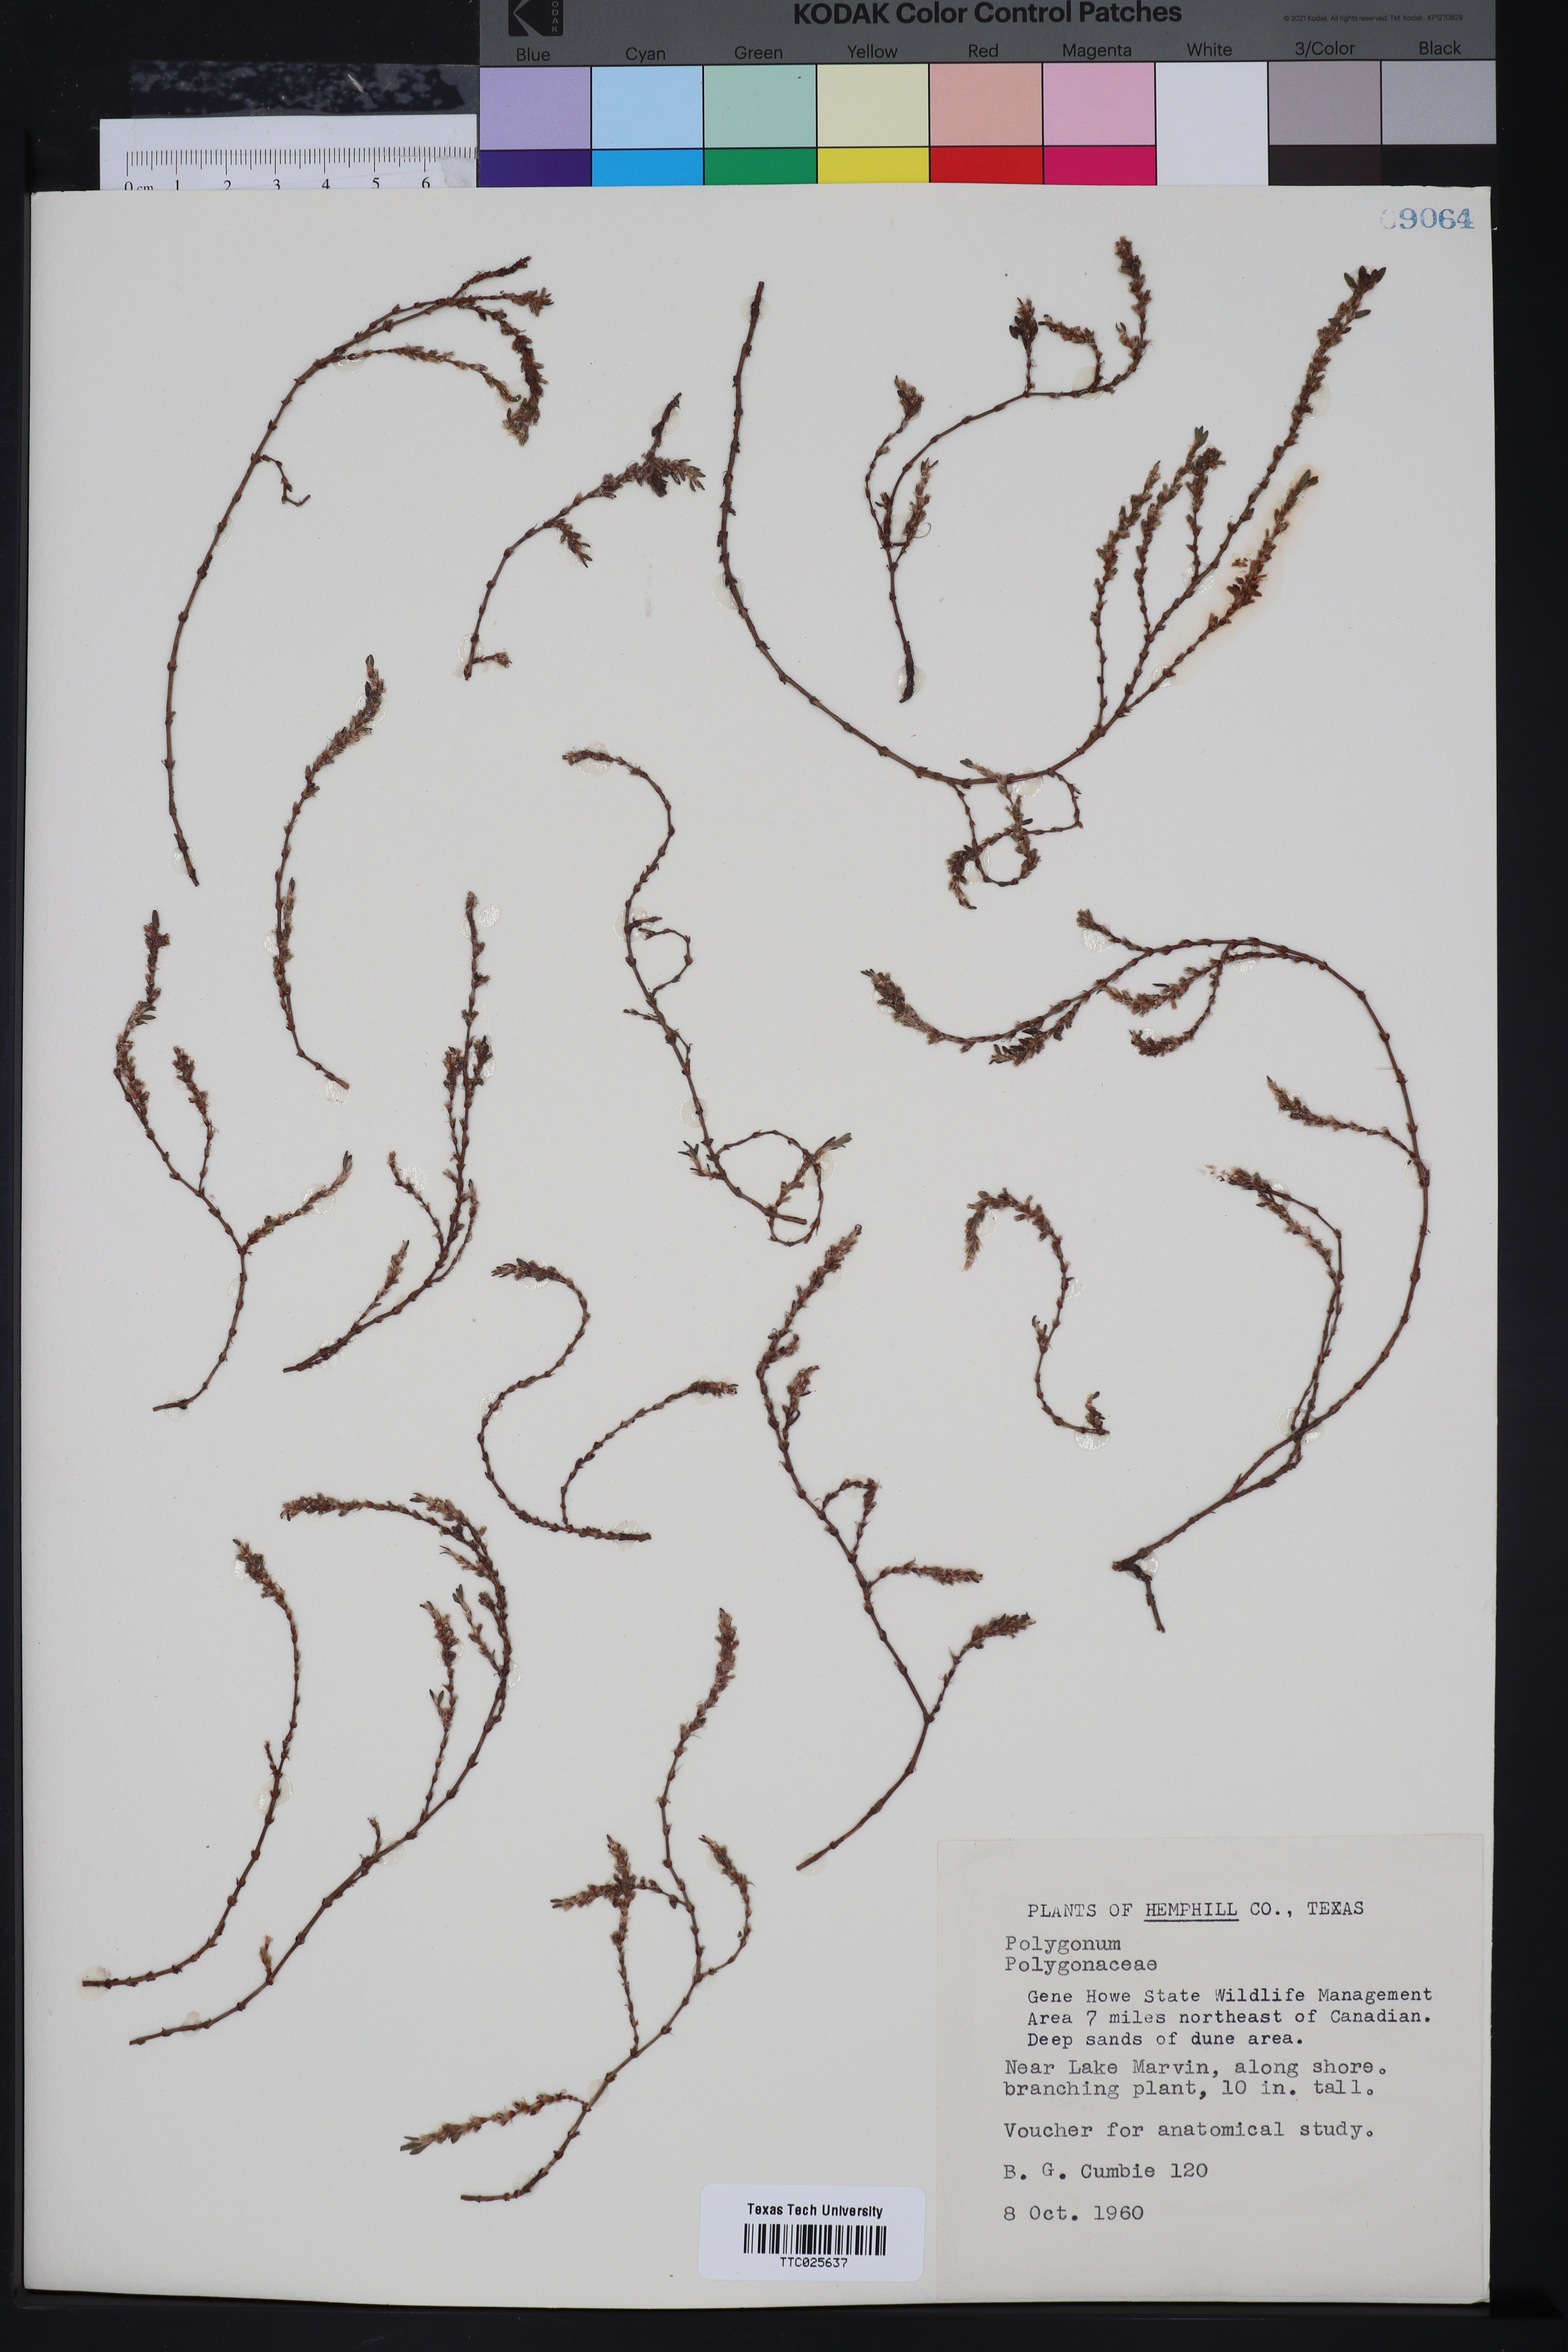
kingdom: Plantae
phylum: Tracheophyta
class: Magnoliopsida
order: Caryophyllales
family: Polygonaceae
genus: Polygonum
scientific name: Polygonum
